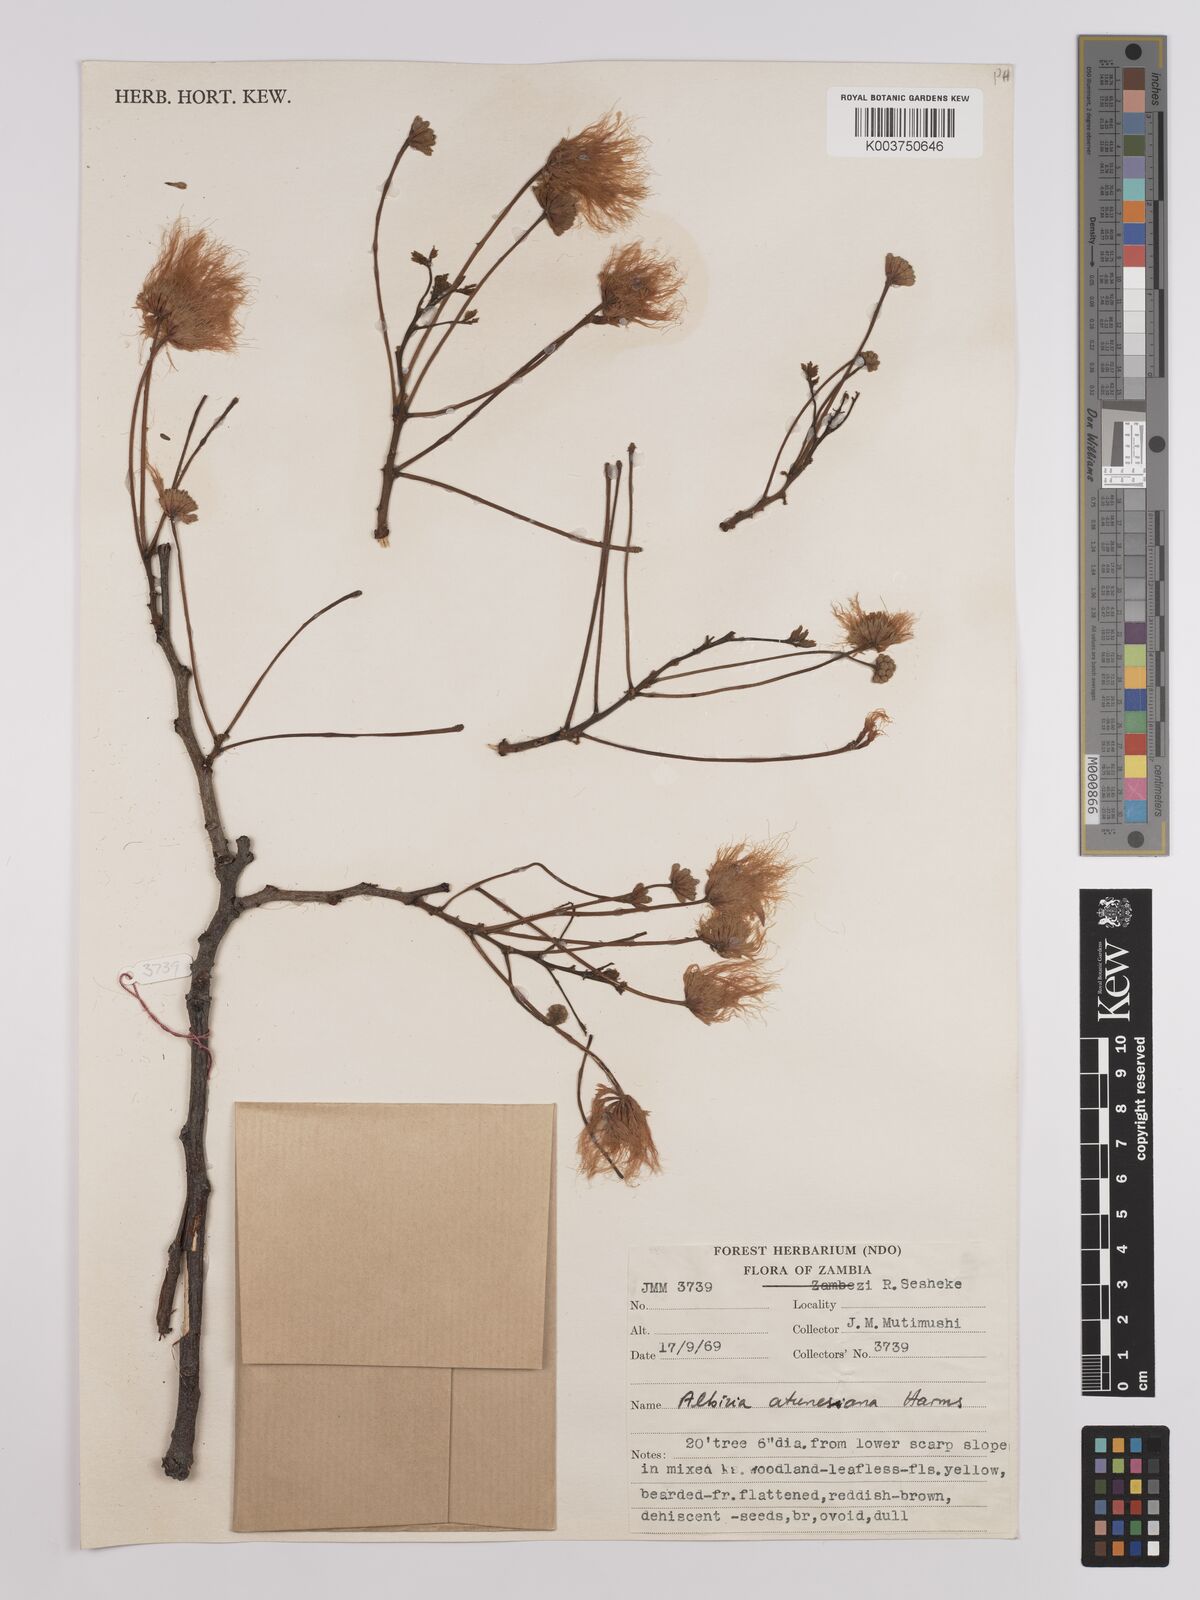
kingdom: Plantae
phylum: Tracheophyta
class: Magnoliopsida
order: Fabales
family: Fabaceae
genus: Albizia
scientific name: Albizia antunesiana
